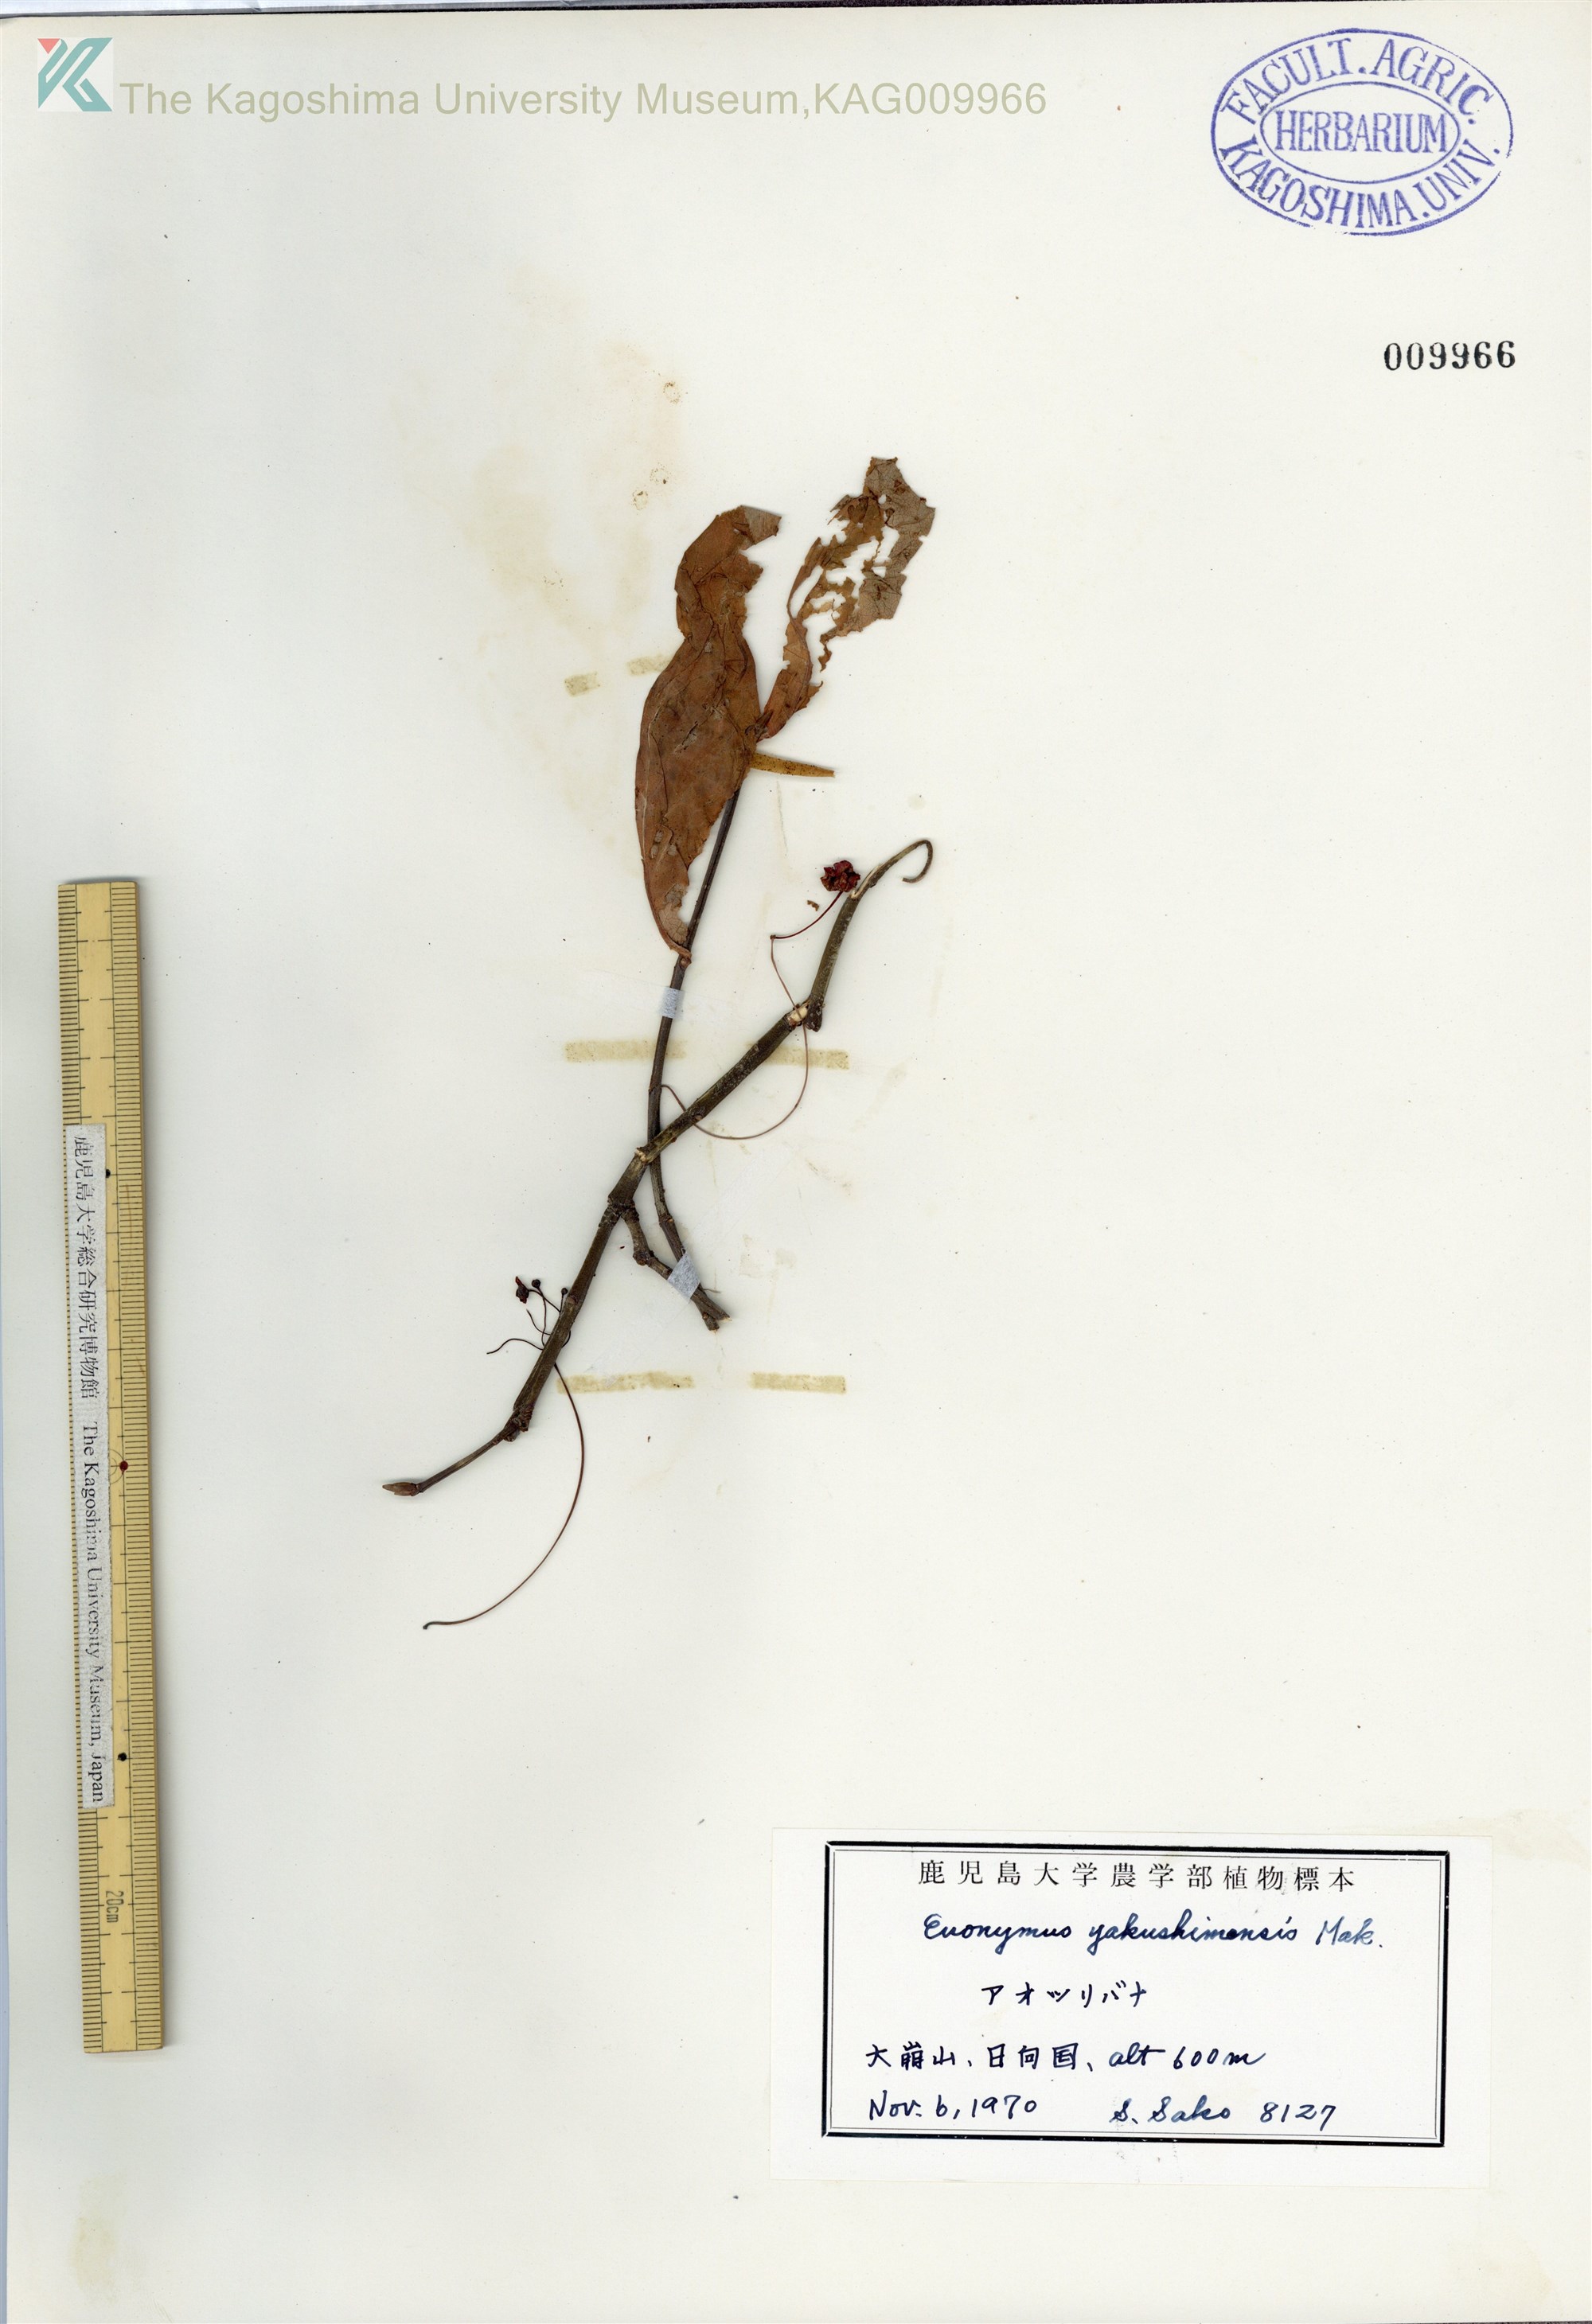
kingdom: Plantae
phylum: Tracheophyta
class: Magnoliopsida
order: Celastrales
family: Celastraceae
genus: Euonymus
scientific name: Euonymus yakushimensis
